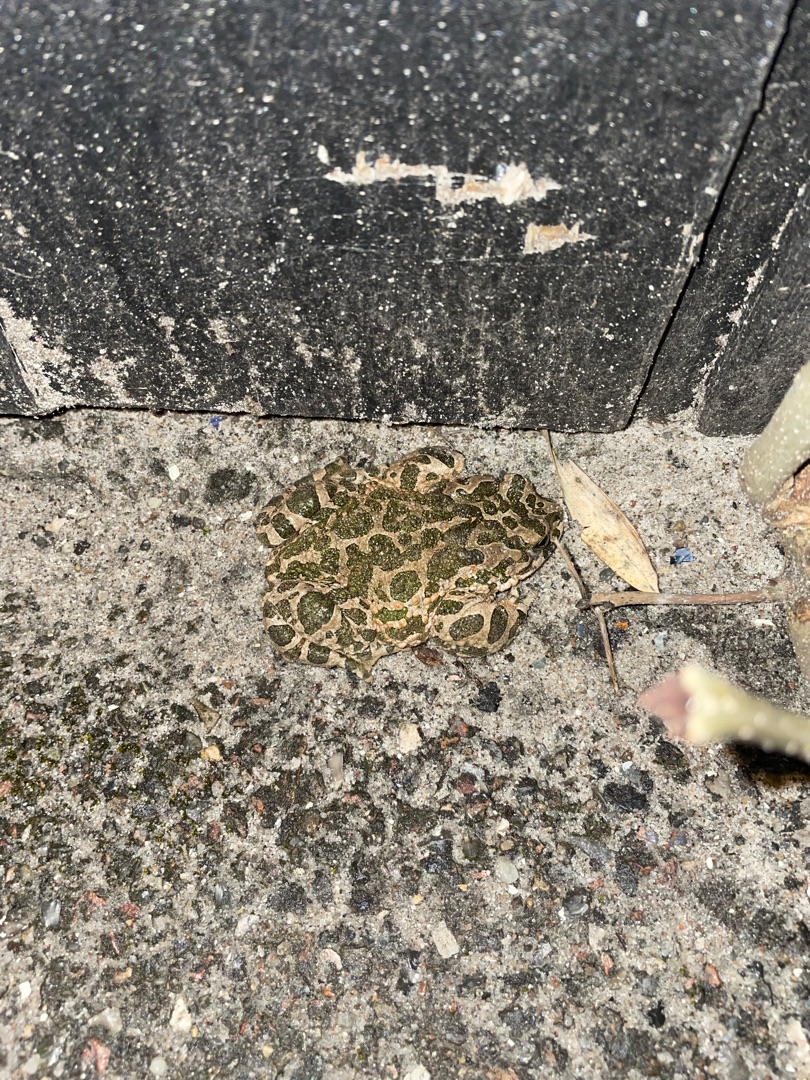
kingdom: Animalia
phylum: Chordata
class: Amphibia
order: Anura
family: Bufonidae
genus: Bufotes
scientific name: Bufotes viridis
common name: Grønbroget tudse
